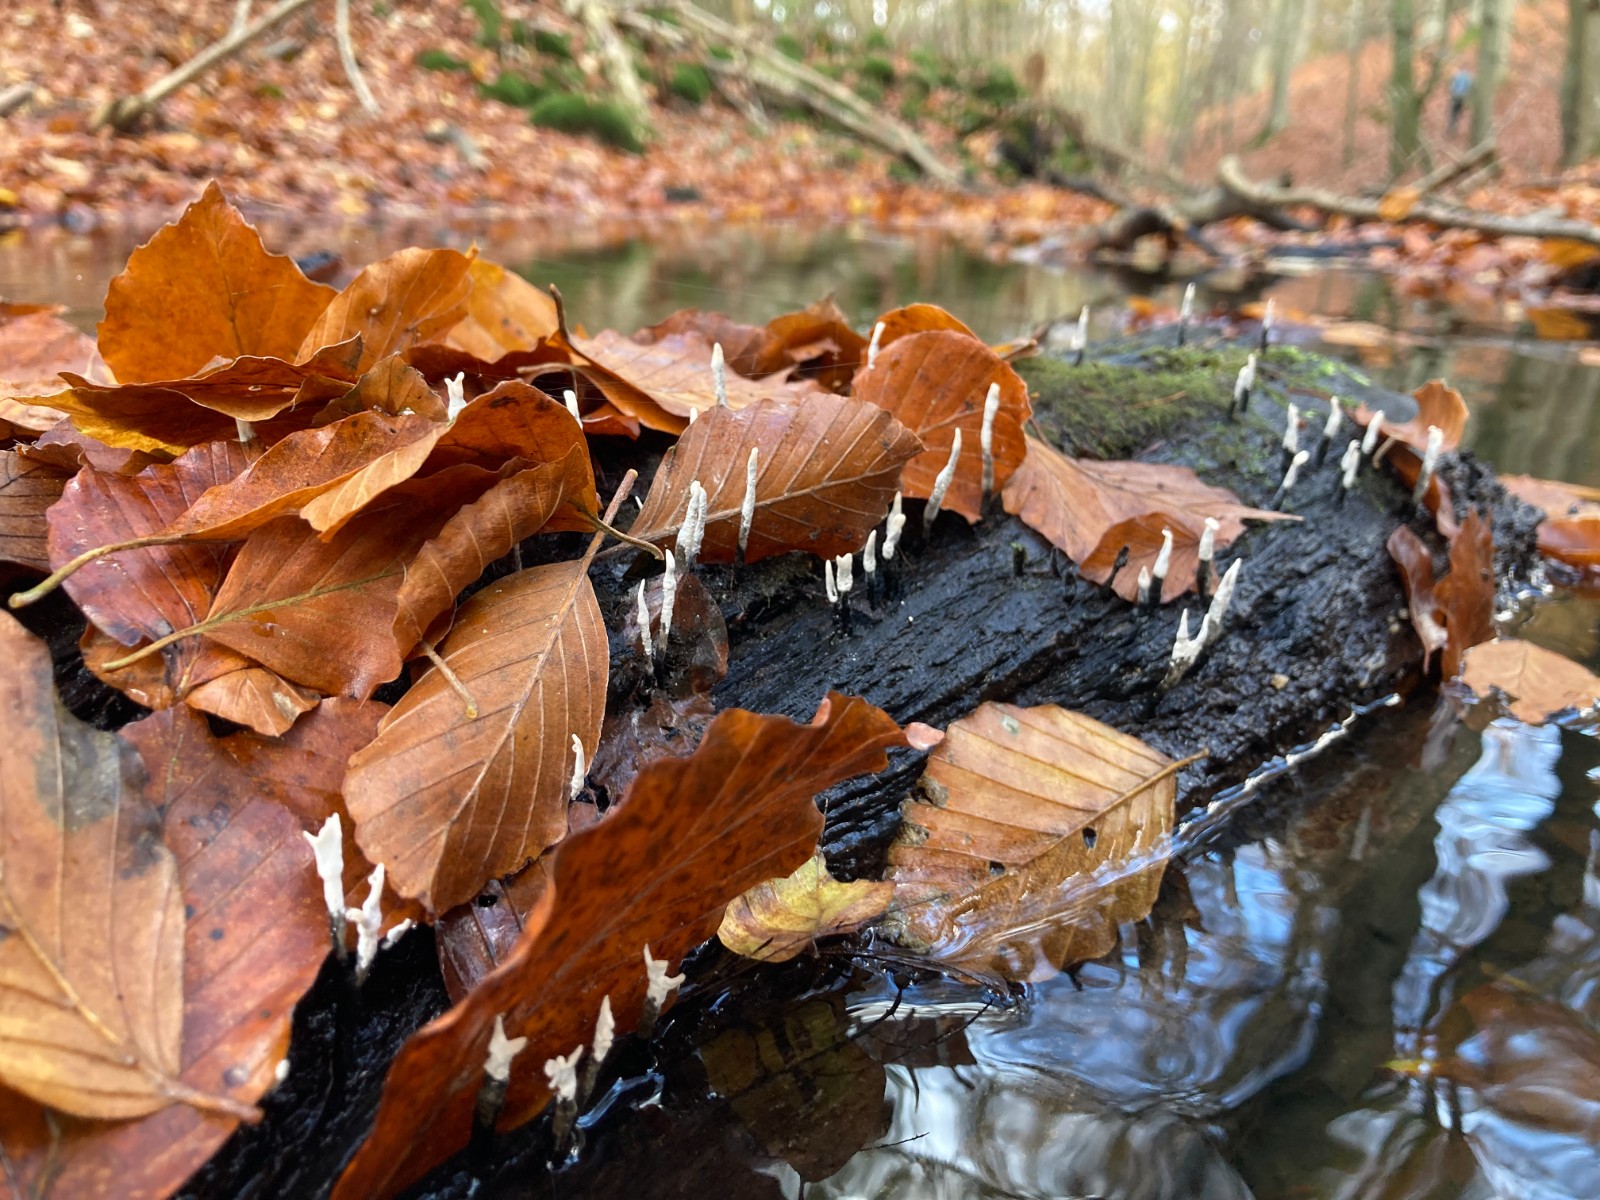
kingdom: Fungi
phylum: Ascomycota
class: Sordariomycetes
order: Xylariales
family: Xylariaceae
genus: Xylaria
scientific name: Xylaria hypoxylon
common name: grenet stødsvamp
